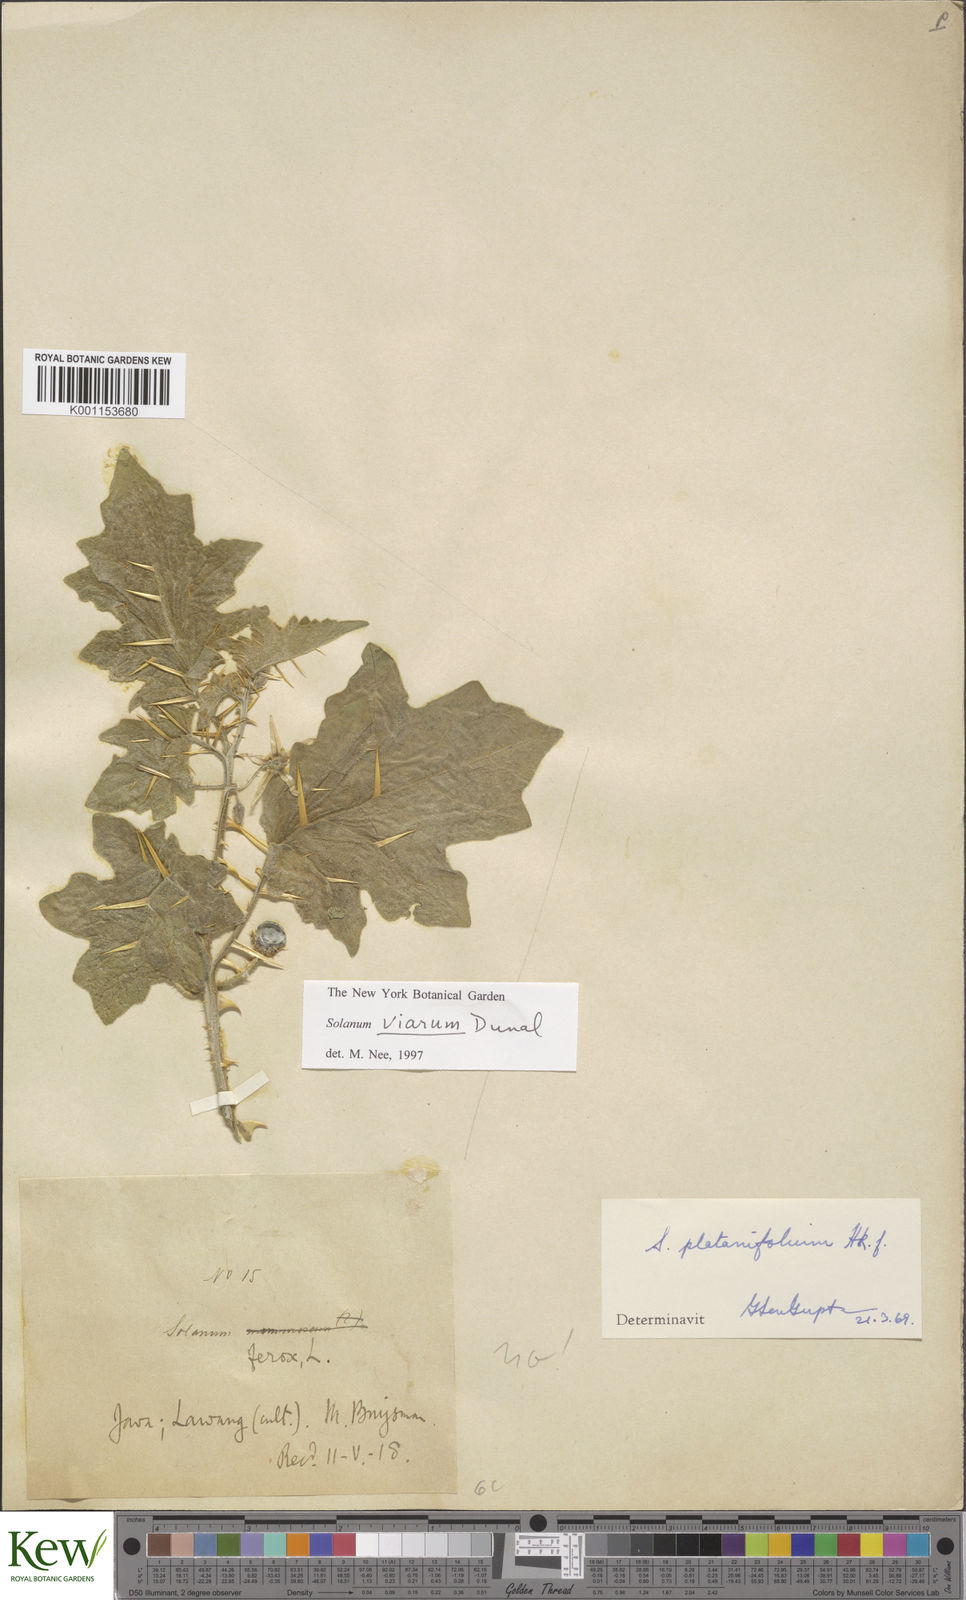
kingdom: Plantae
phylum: Tracheophyta
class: Magnoliopsida
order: Solanales
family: Solanaceae
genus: Solanum
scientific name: Solanum viarum
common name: Tropical soda apple
